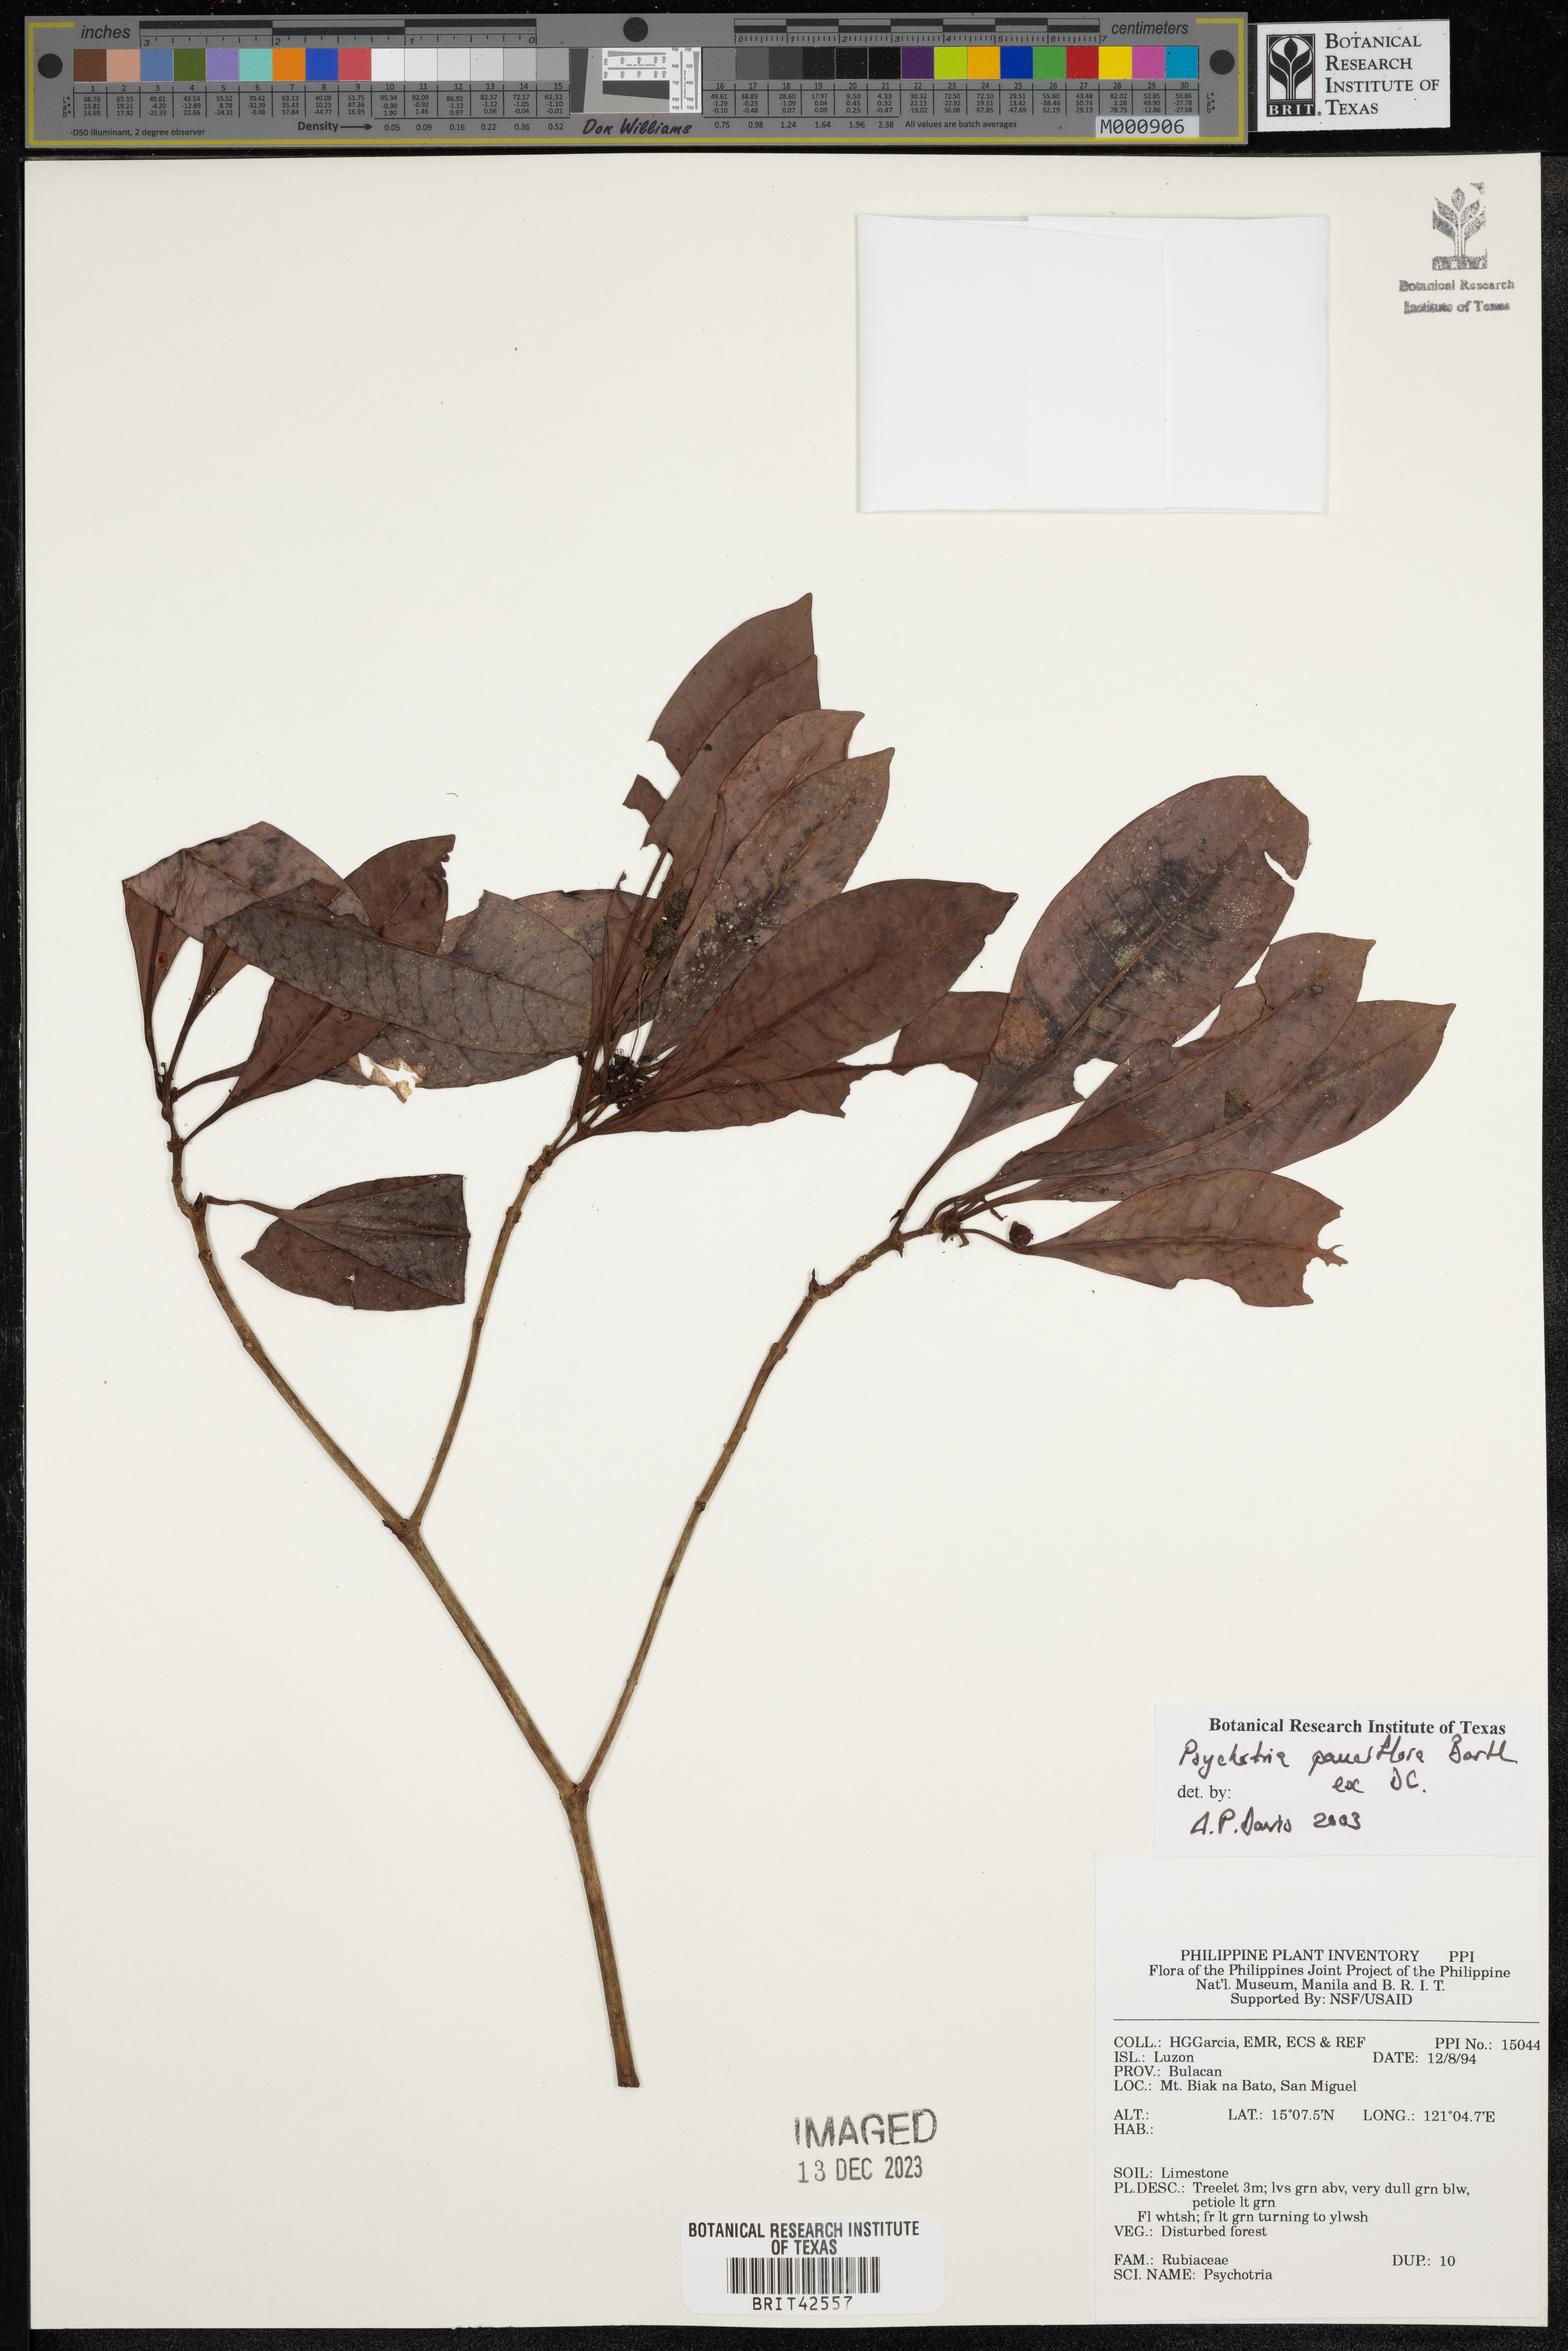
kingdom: Plantae
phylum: Tracheophyta
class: Magnoliopsida
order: Gentianales
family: Rubiaceae
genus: Psychotria
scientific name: Psychotria subobliqua
